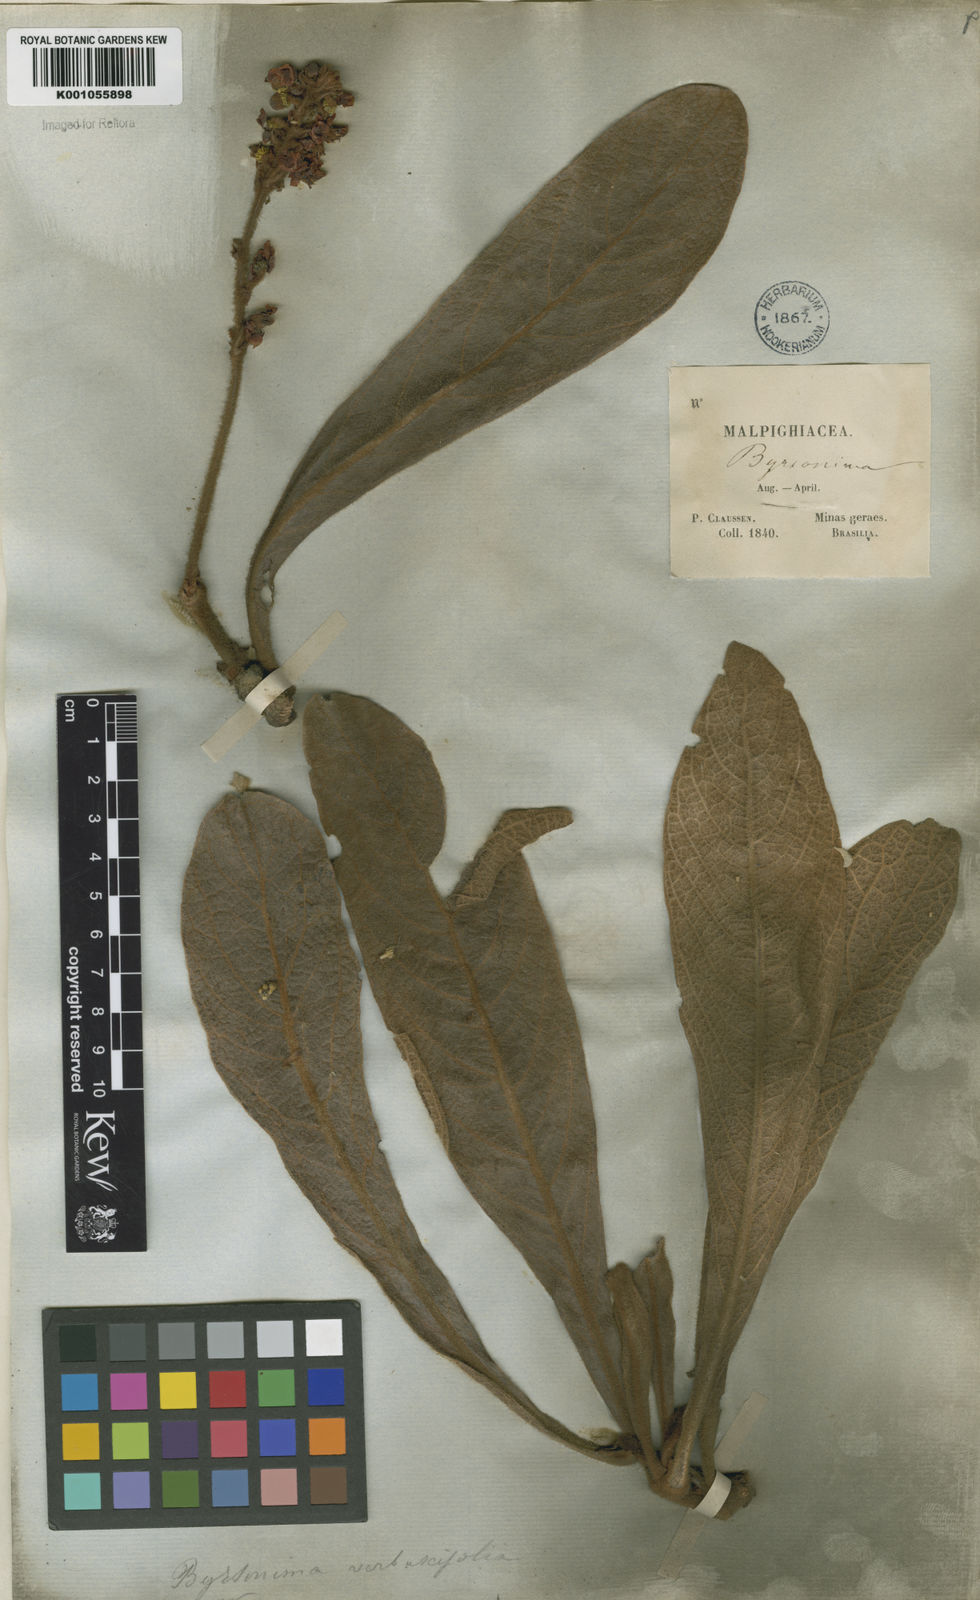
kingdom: Plantae
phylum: Tracheophyta
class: Magnoliopsida
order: Malpighiales
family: Malpighiaceae
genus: Byrsonima
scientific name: Byrsonima verbascifolia
